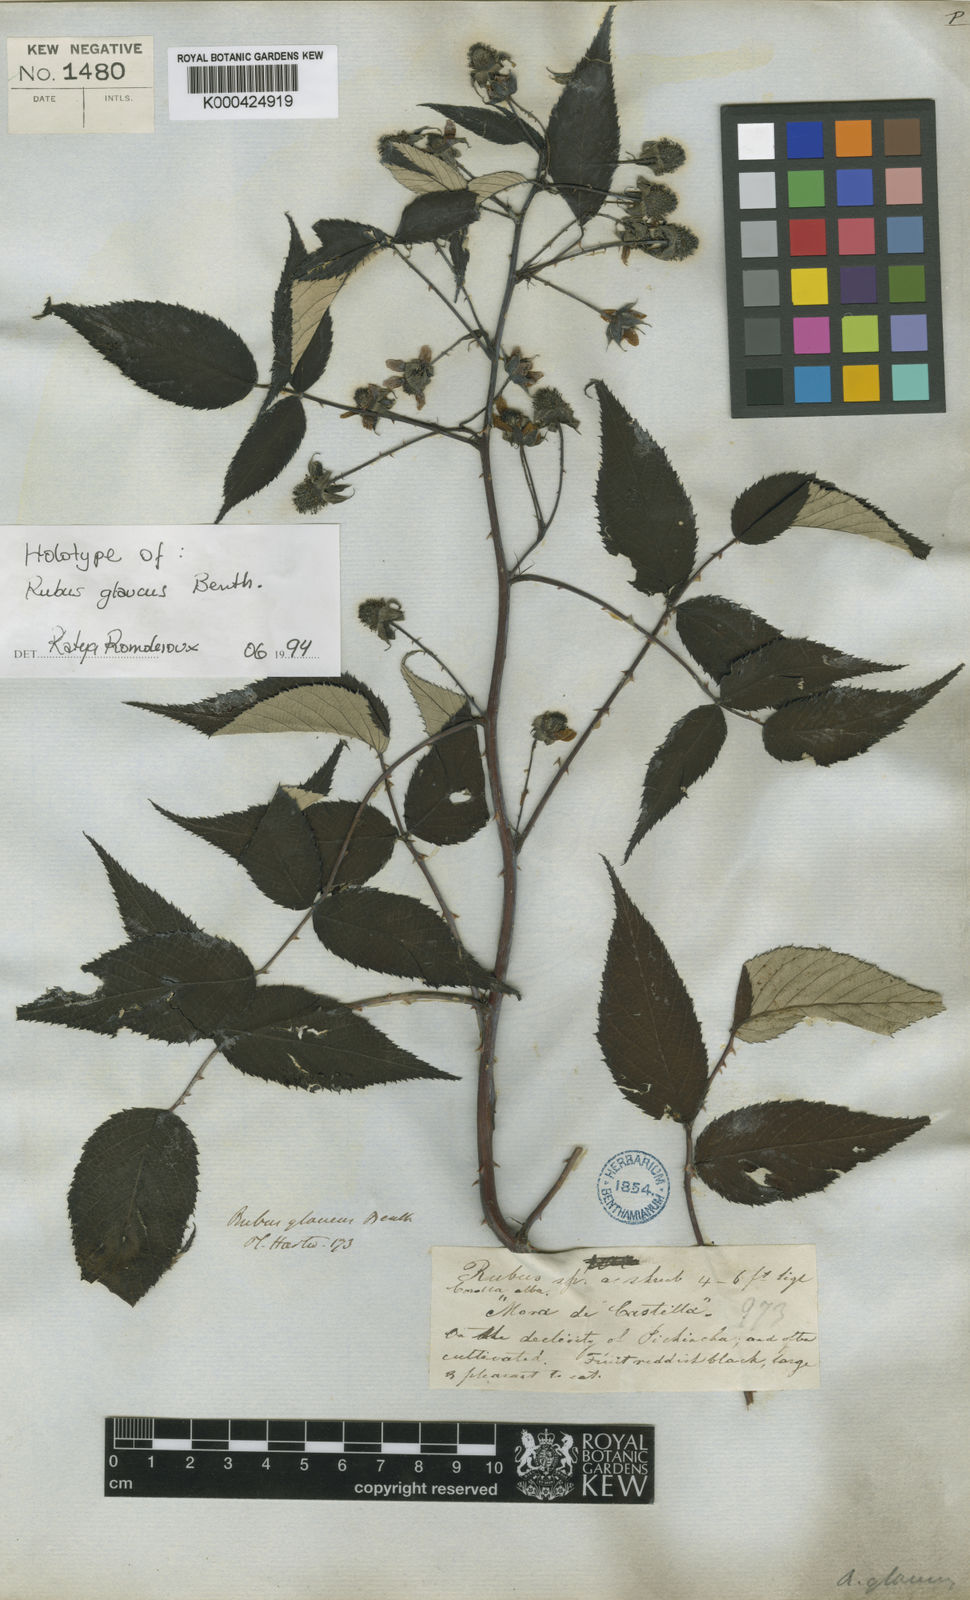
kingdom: Plantae
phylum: Tracheophyta
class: Magnoliopsida
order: Rosales
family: Rosaceae
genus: Rubus
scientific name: Rubus glaucus
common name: Andean blackberry
